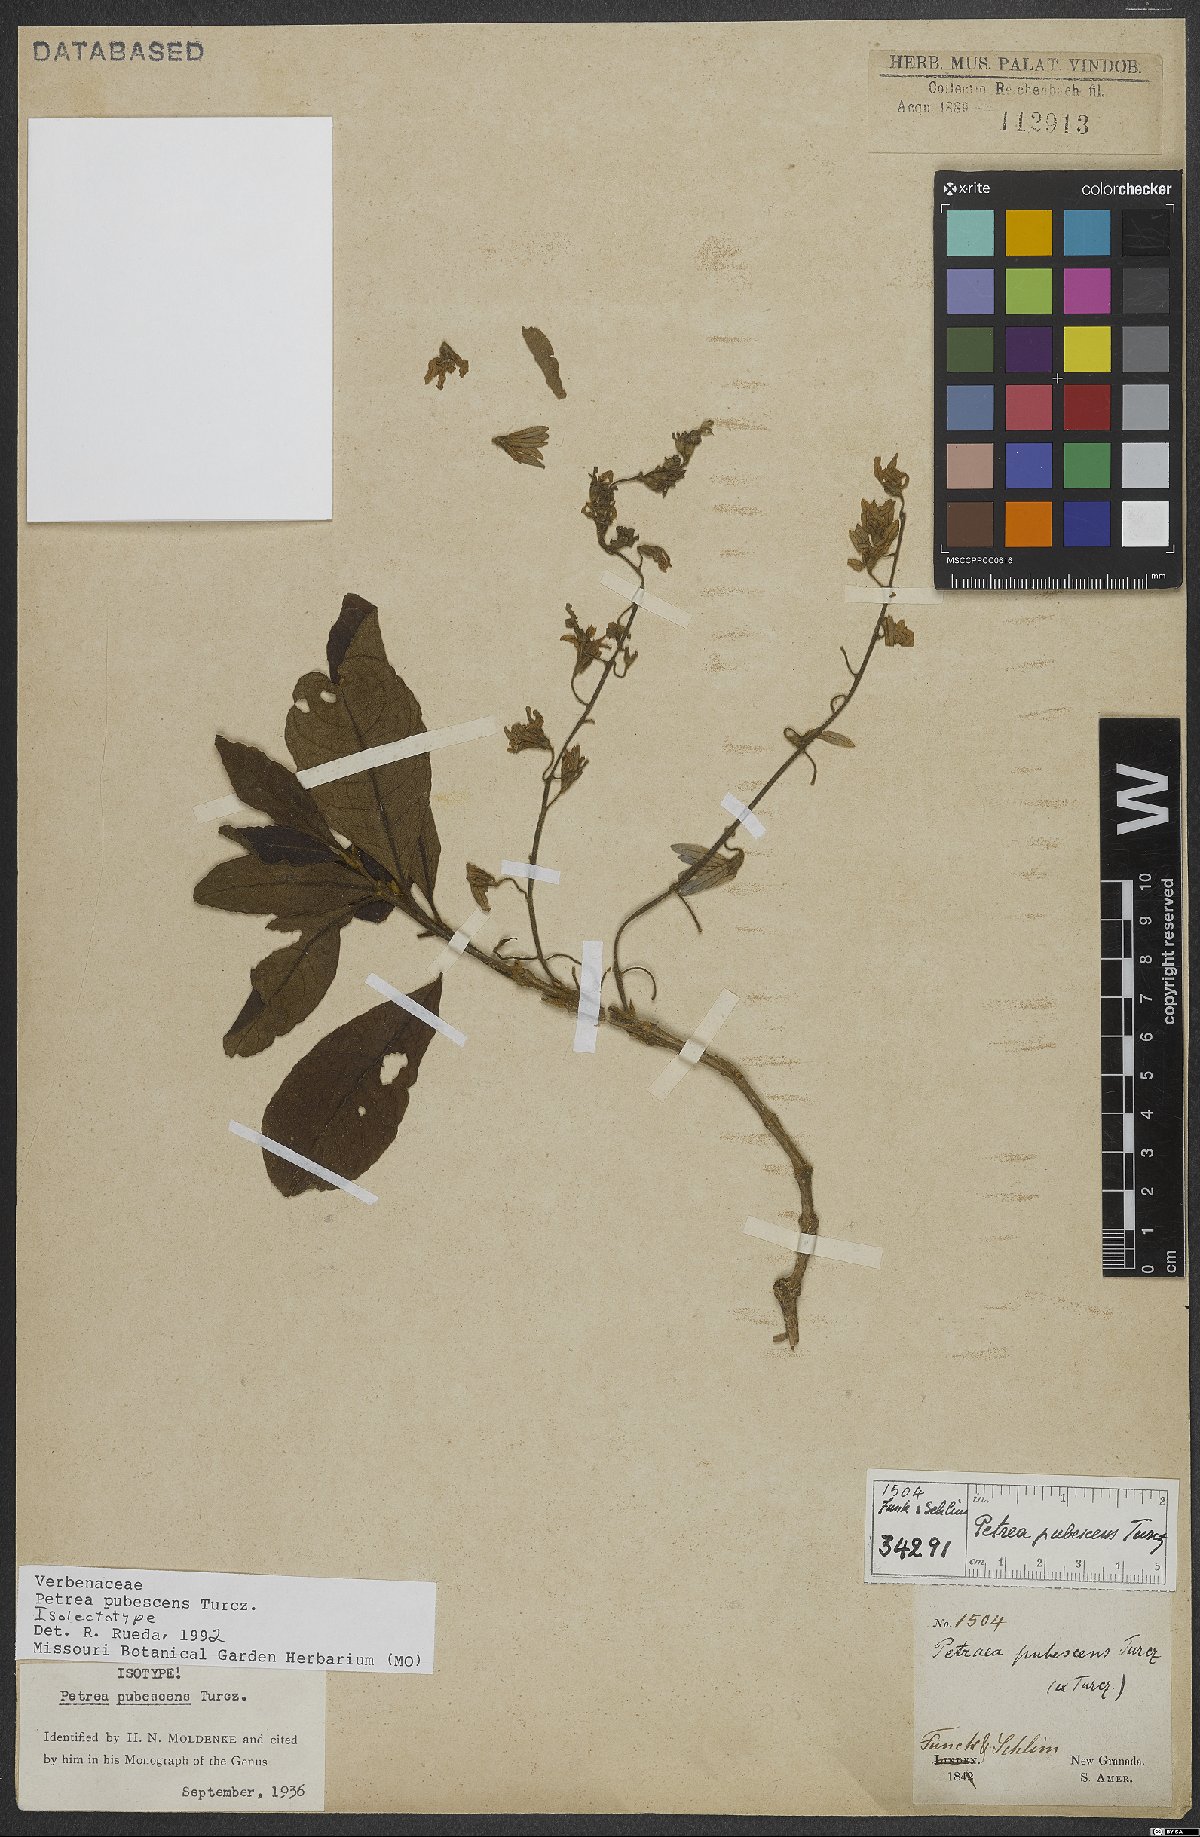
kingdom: Plantae
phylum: Tracheophyta
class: Magnoliopsida
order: Lamiales
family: Verbenaceae
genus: Petrea
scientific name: Petrea pubescens
